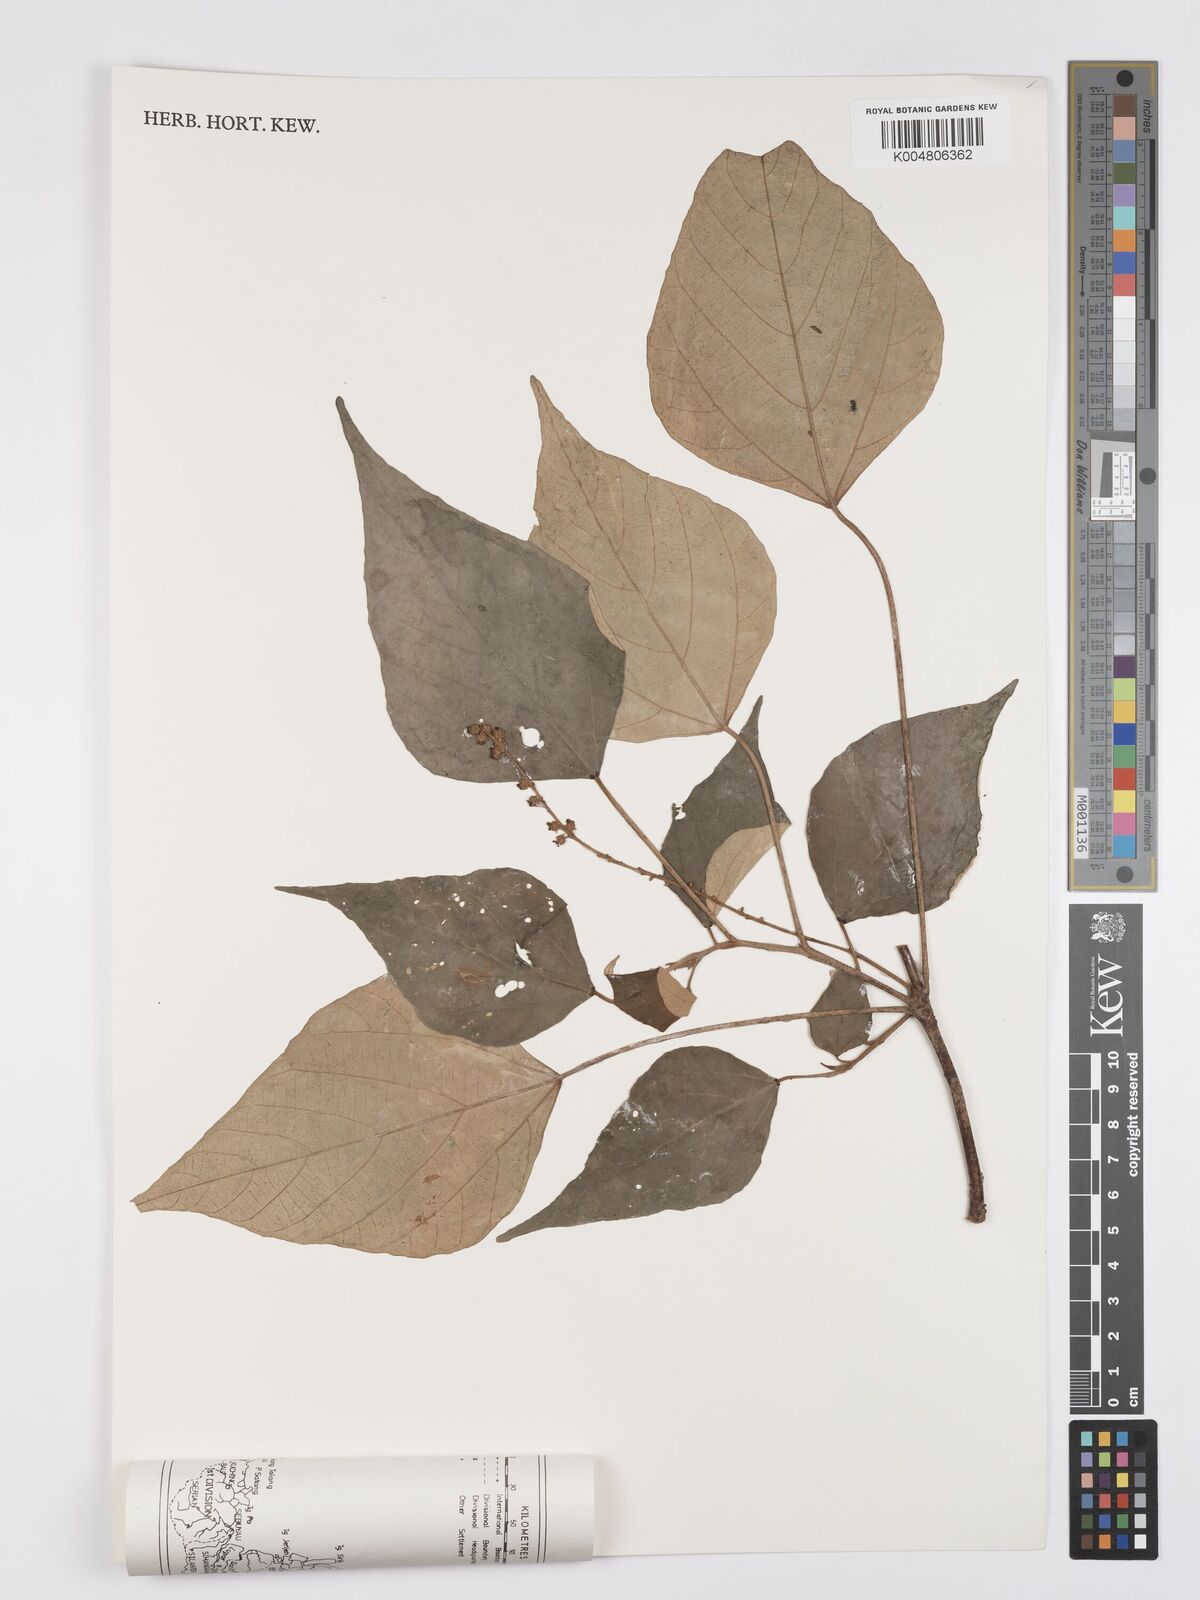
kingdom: Plantae
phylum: Tracheophyta
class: Magnoliopsida
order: Malpighiales
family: Euphorbiaceae
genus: Mallotus
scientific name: Mallotus paniculatus
